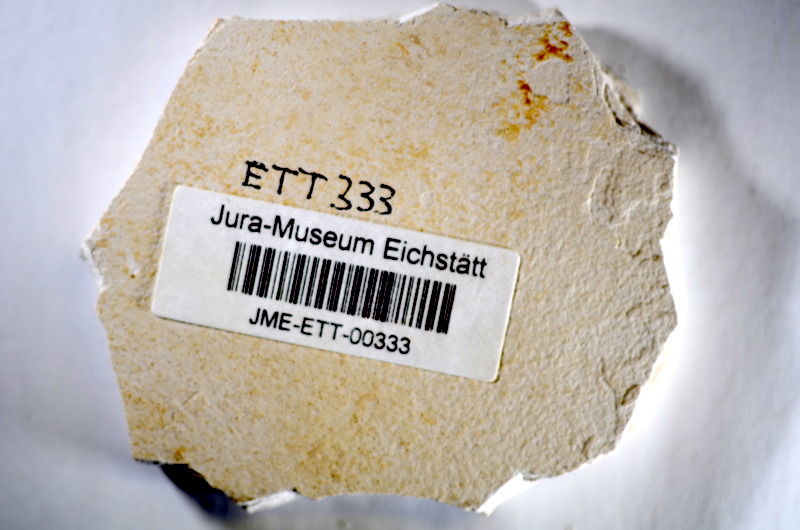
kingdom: Animalia
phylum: Chordata
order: Salmoniformes
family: Orthogonikleithridae
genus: Orthogonikleithrus
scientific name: Orthogonikleithrus hoelli
